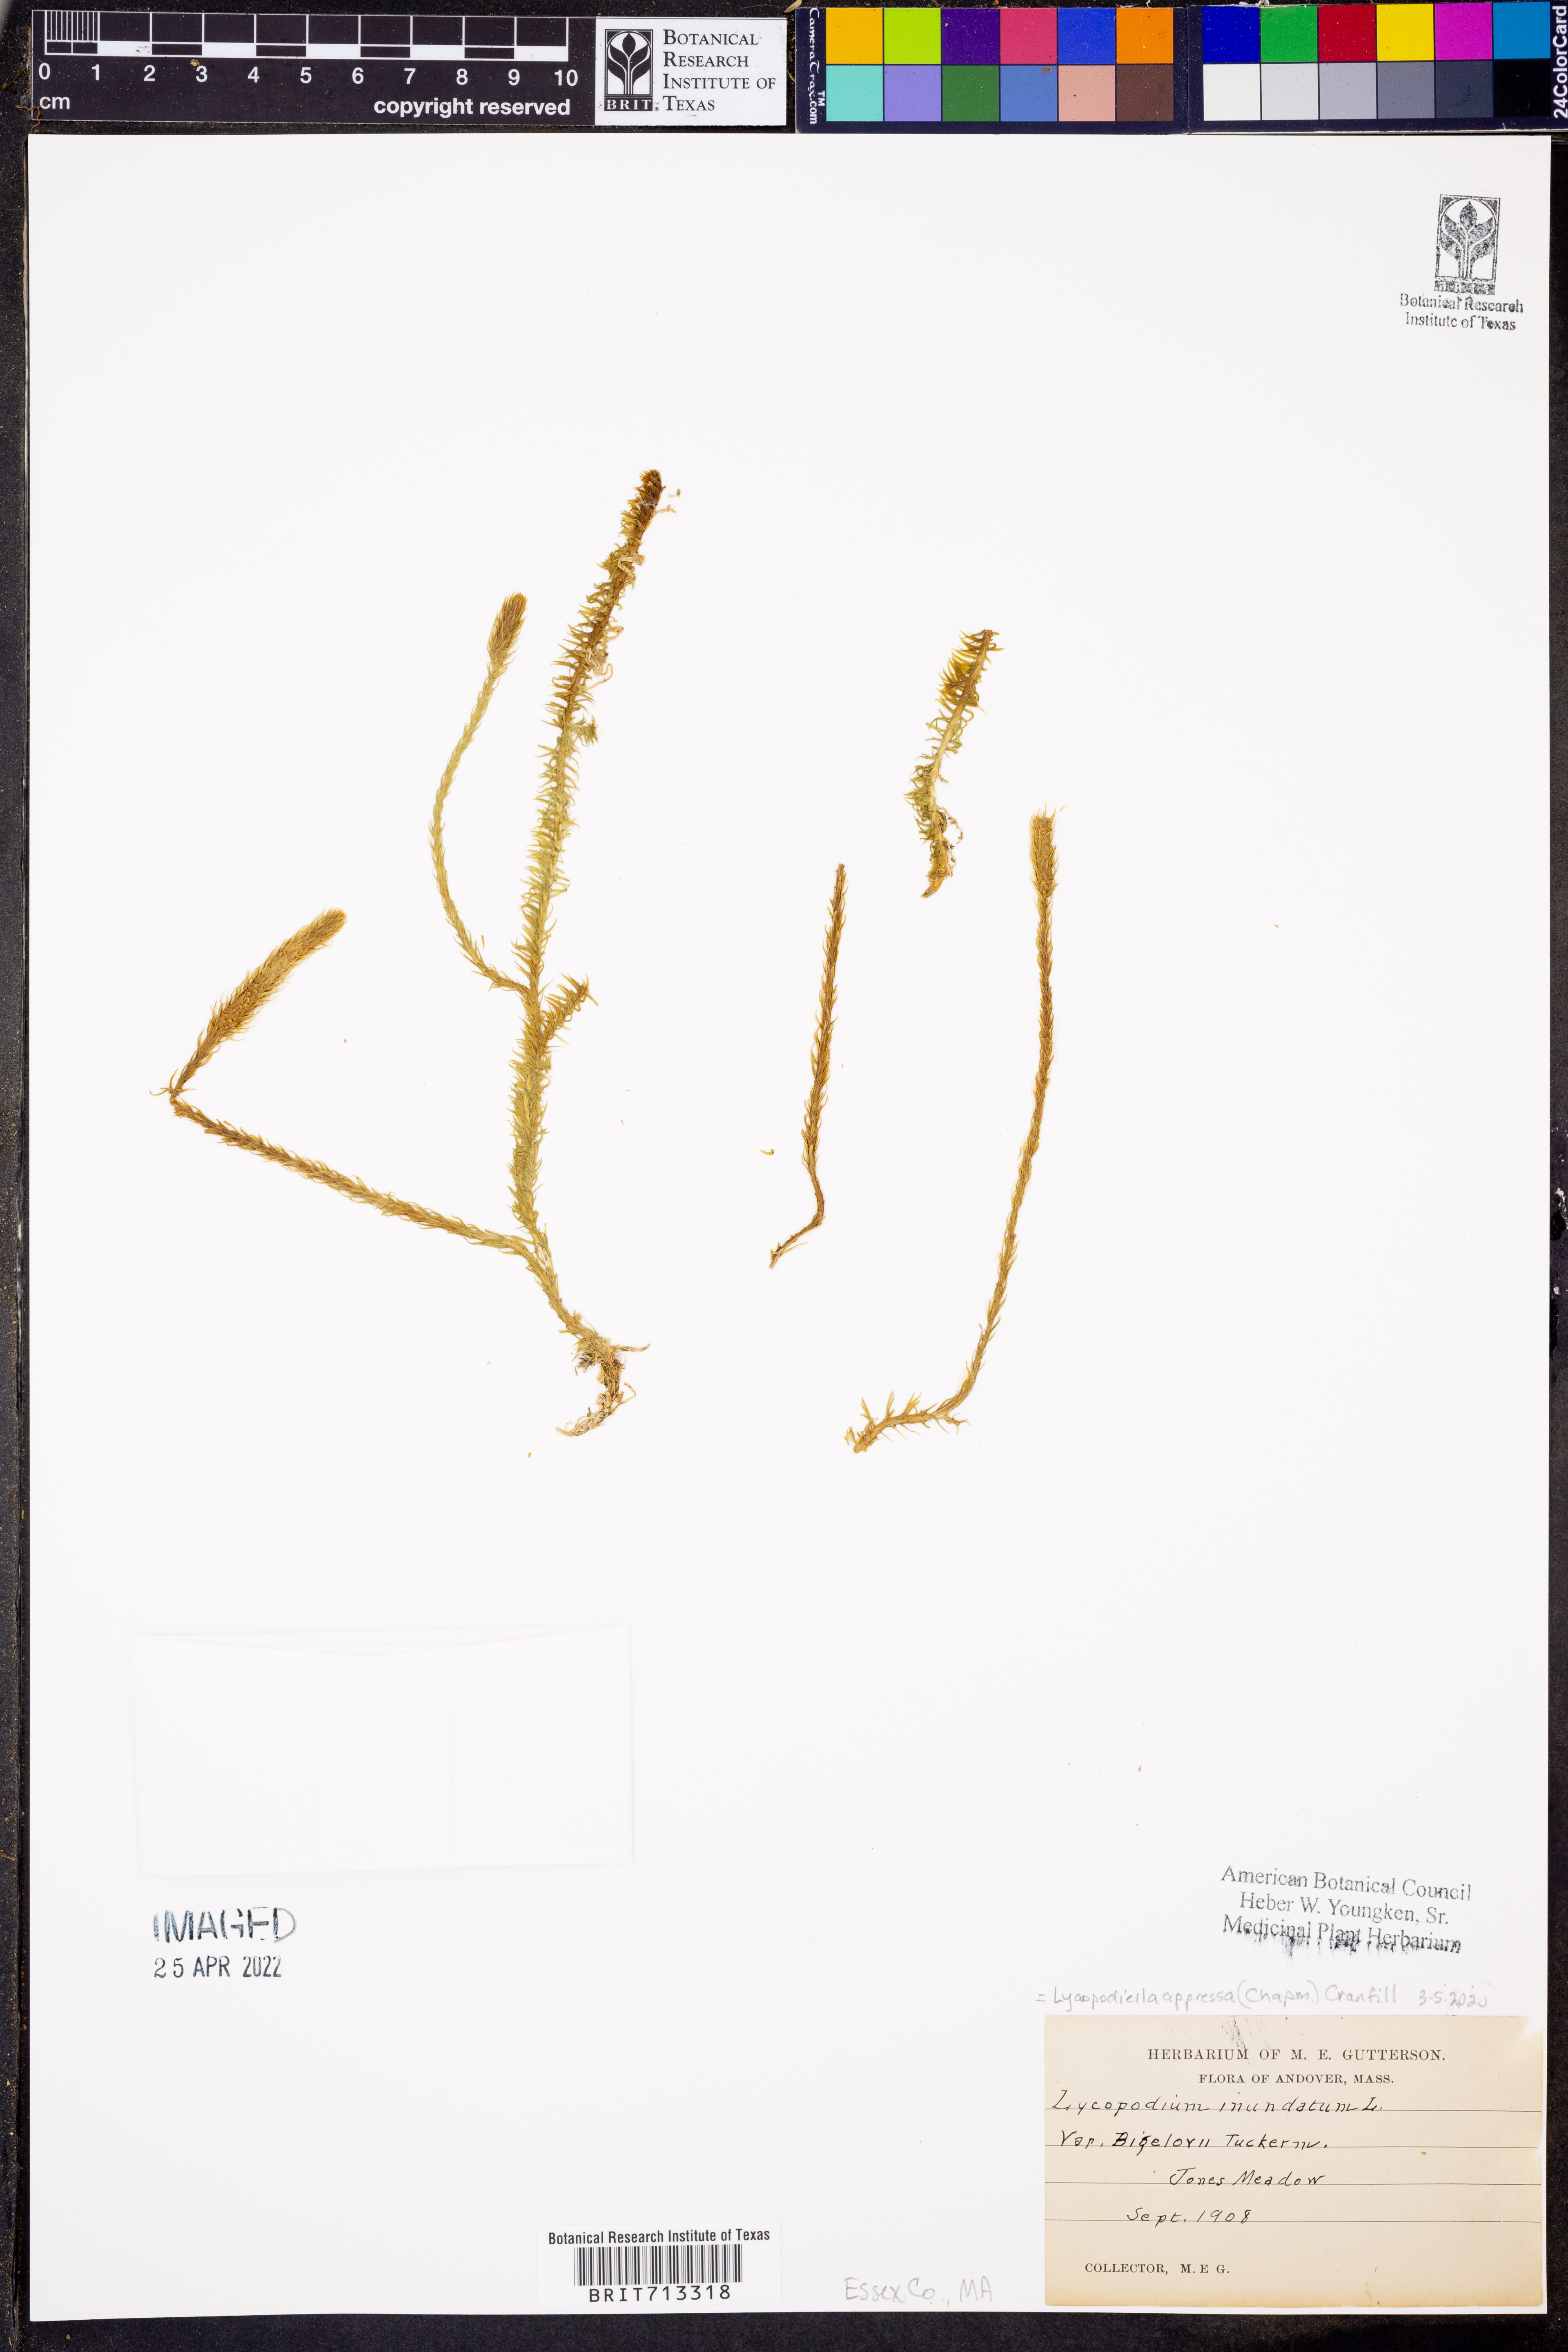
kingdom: Plantae
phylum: Tracheophyta
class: Lycopodiopsida
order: Lycopodiales
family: Lycopodiaceae
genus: Lycopodiella
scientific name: Lycopodiella inundata
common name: Marsh clubmoss
